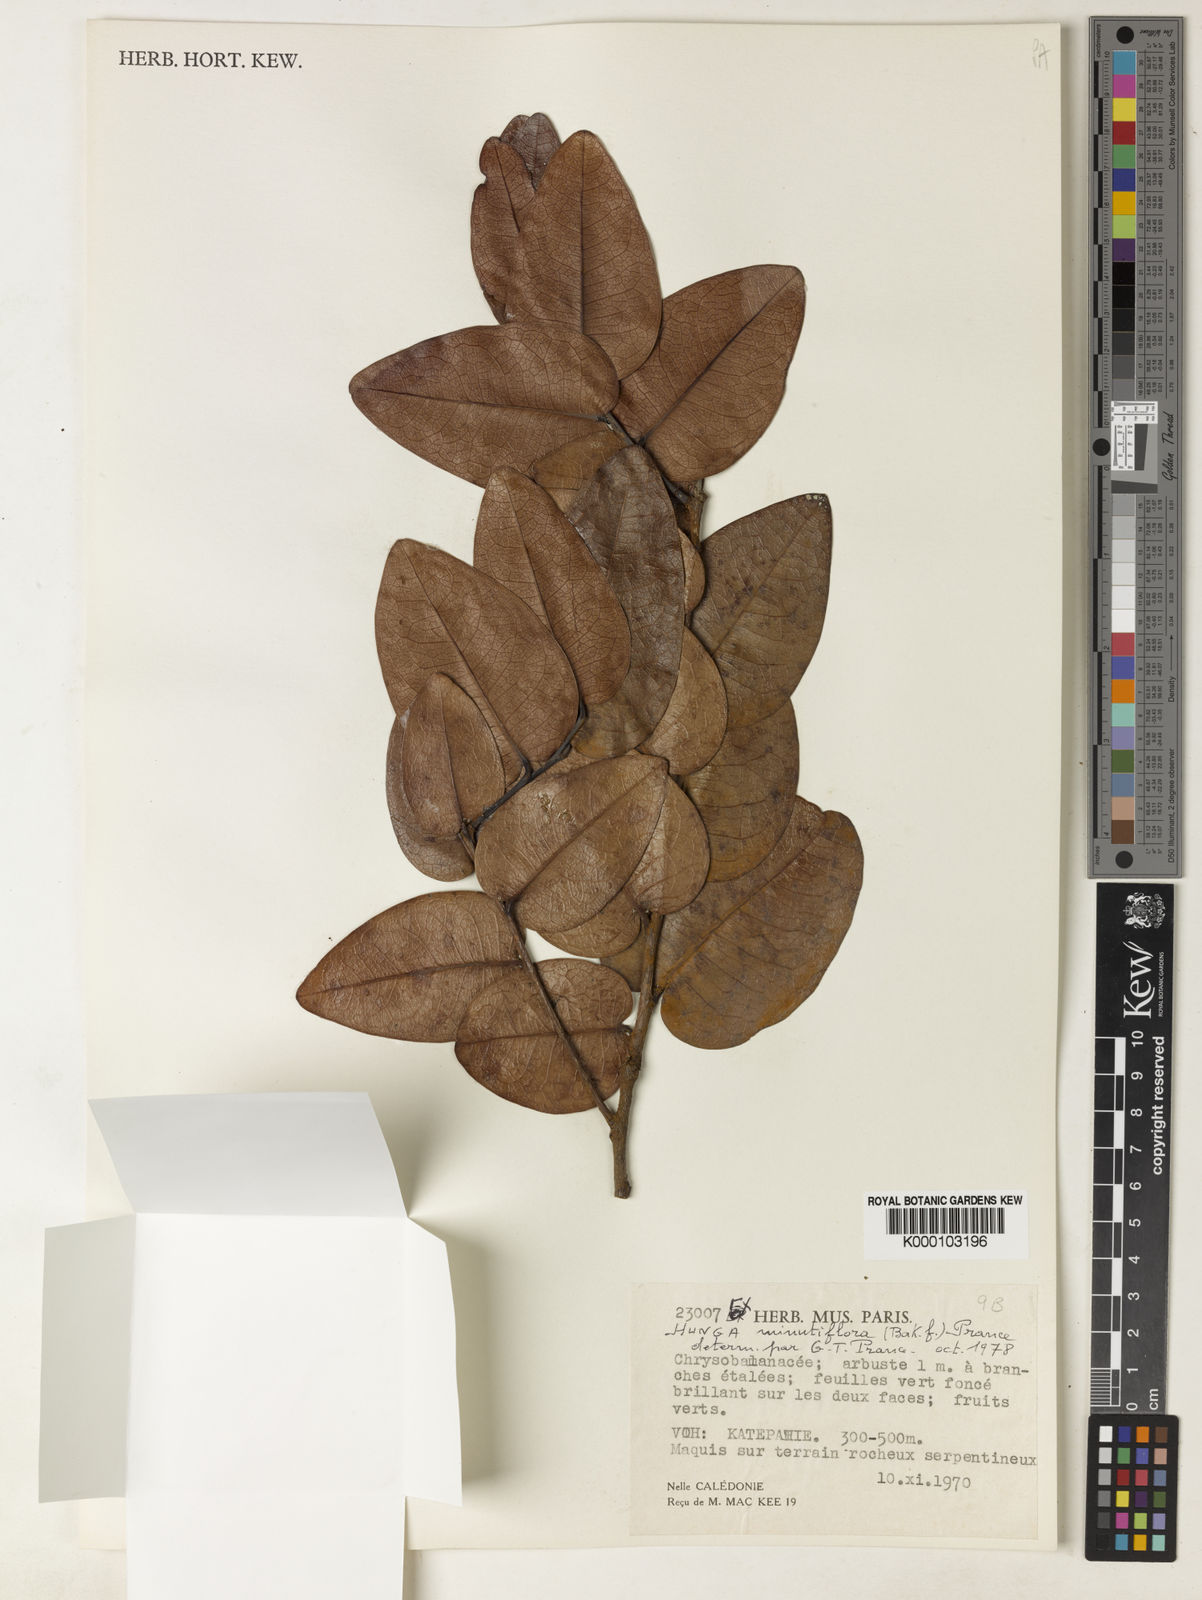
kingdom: Plantae
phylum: Tracheophyta
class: Magnoliopsida
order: Malpighiales
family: Chrysobalanaceae
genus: Hunga
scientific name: Hunga cordata
